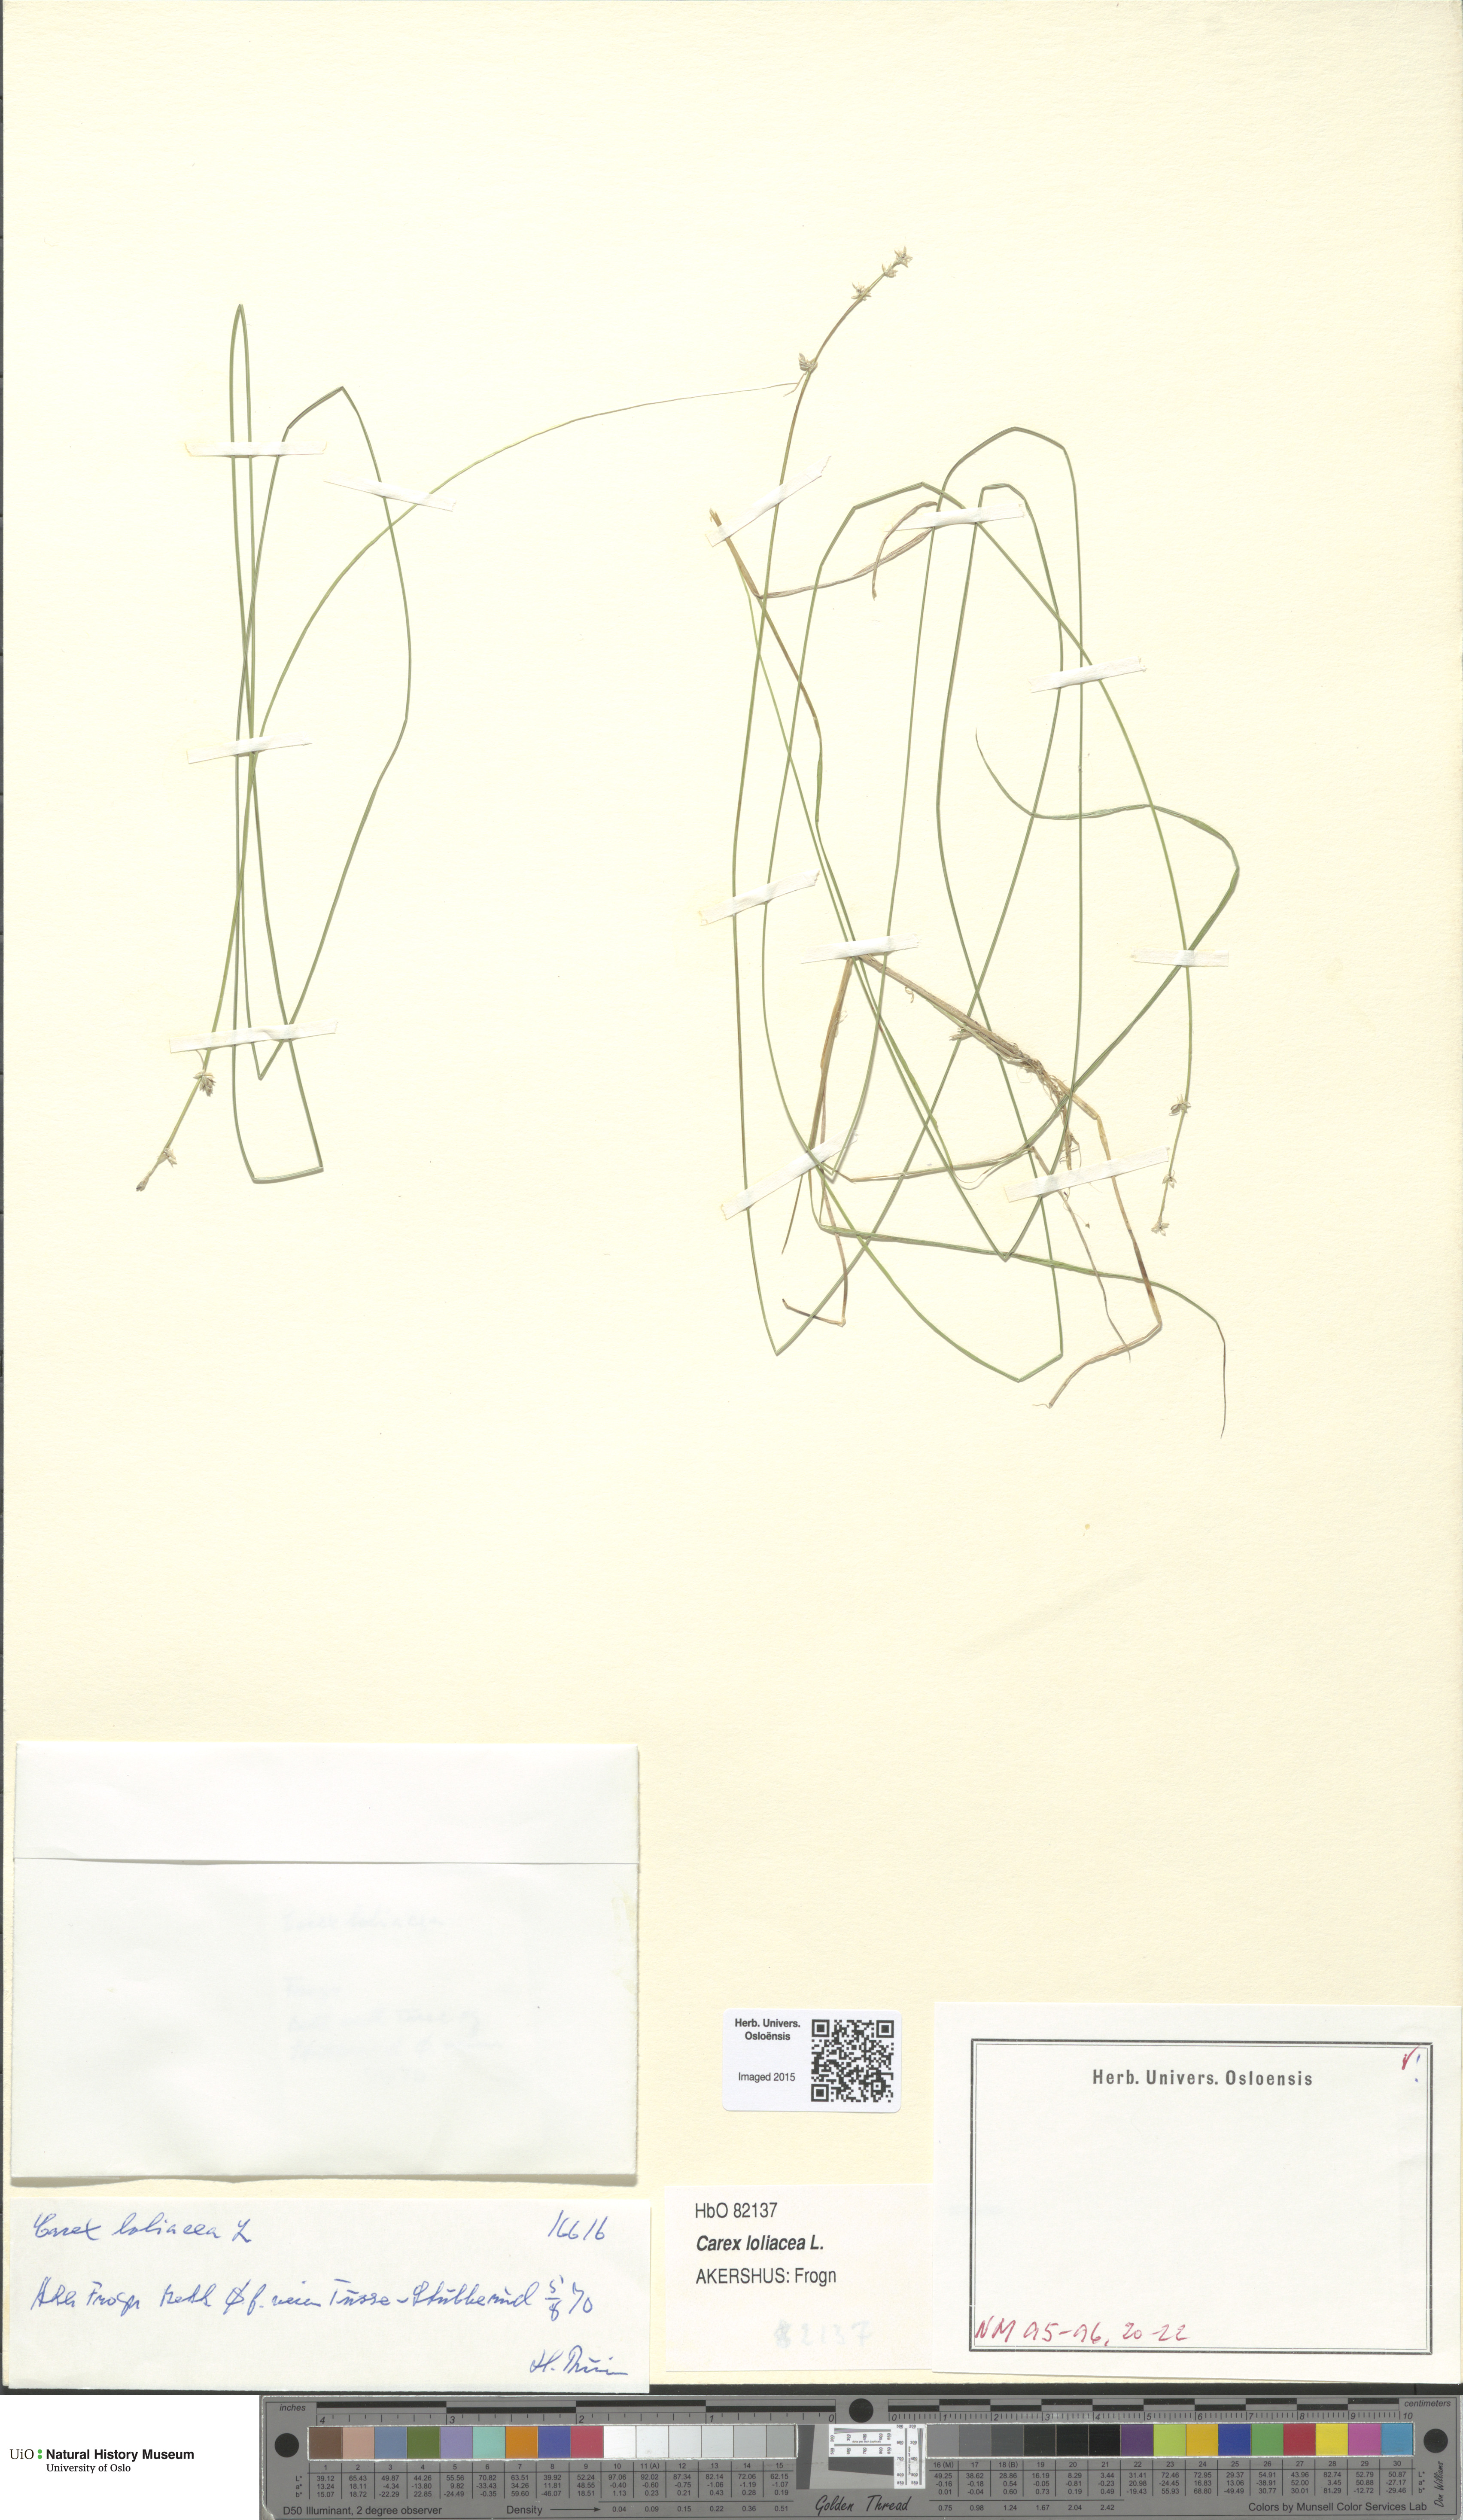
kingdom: Plantae
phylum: Tracheophyta
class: Liliopsida
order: Poales
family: Cyperaceae
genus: Carex
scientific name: Carex loliacea
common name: Ryegrass sedge
